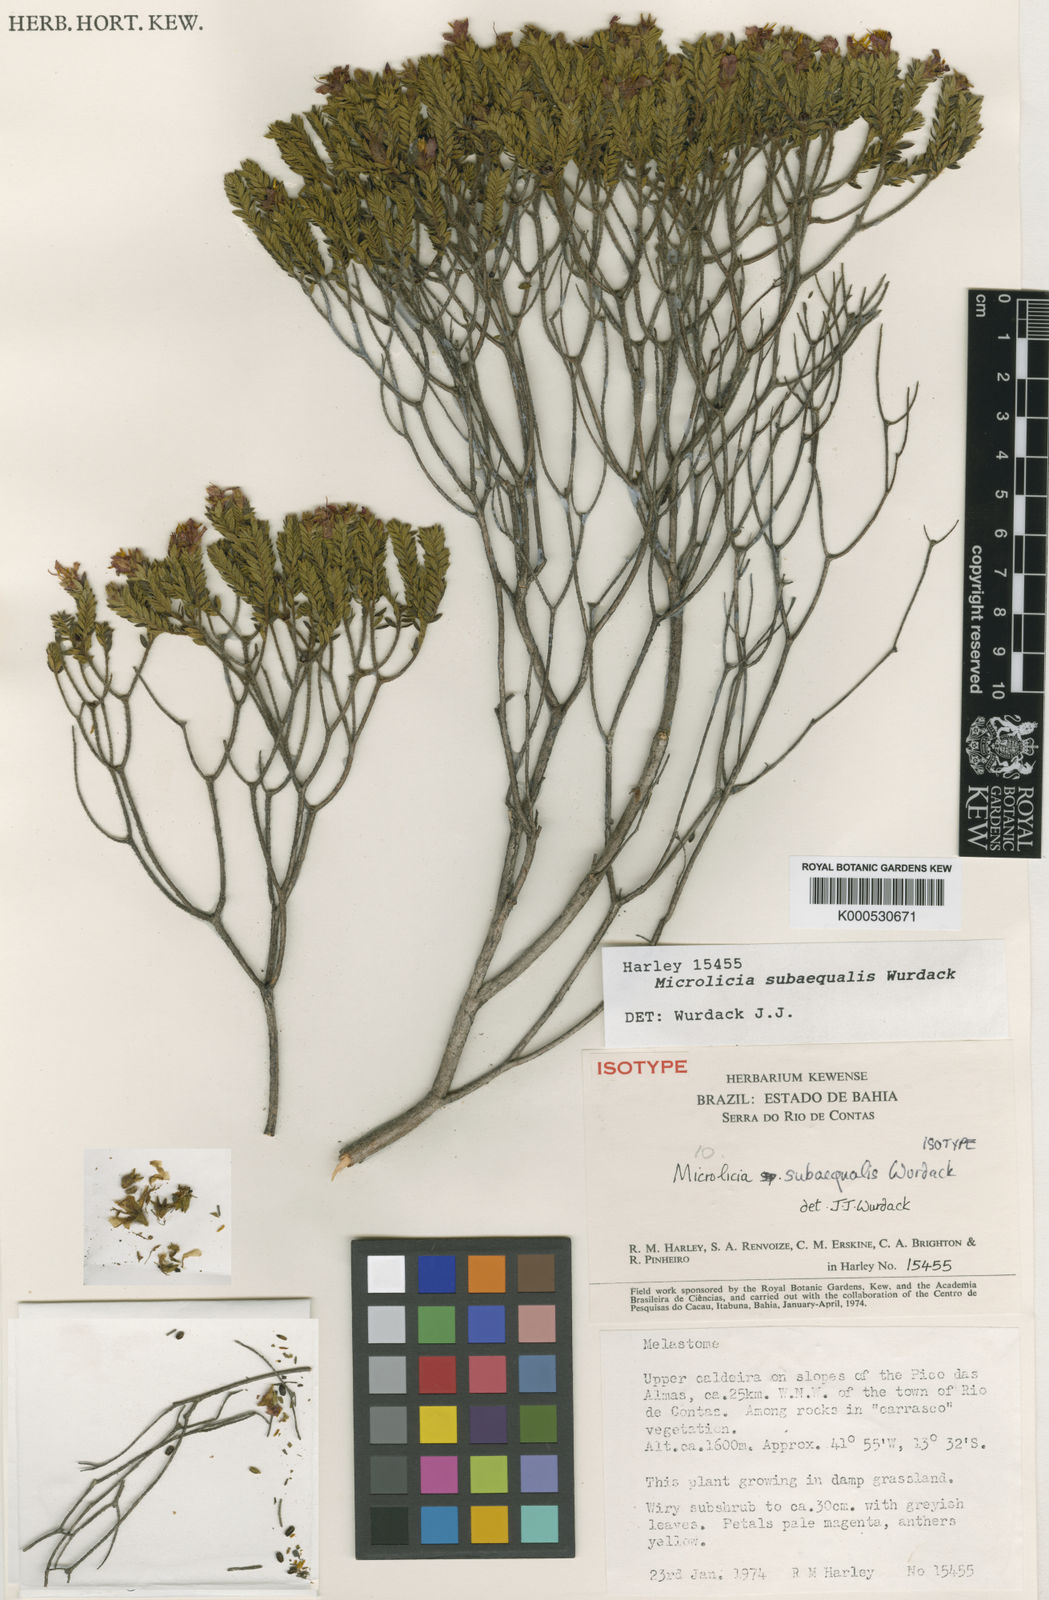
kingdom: Plantae
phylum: Tracheophyta
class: Magnoliopsida
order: Myrtales
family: Melastomataceae
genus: Microlicia
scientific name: Microlicia subaequalis
